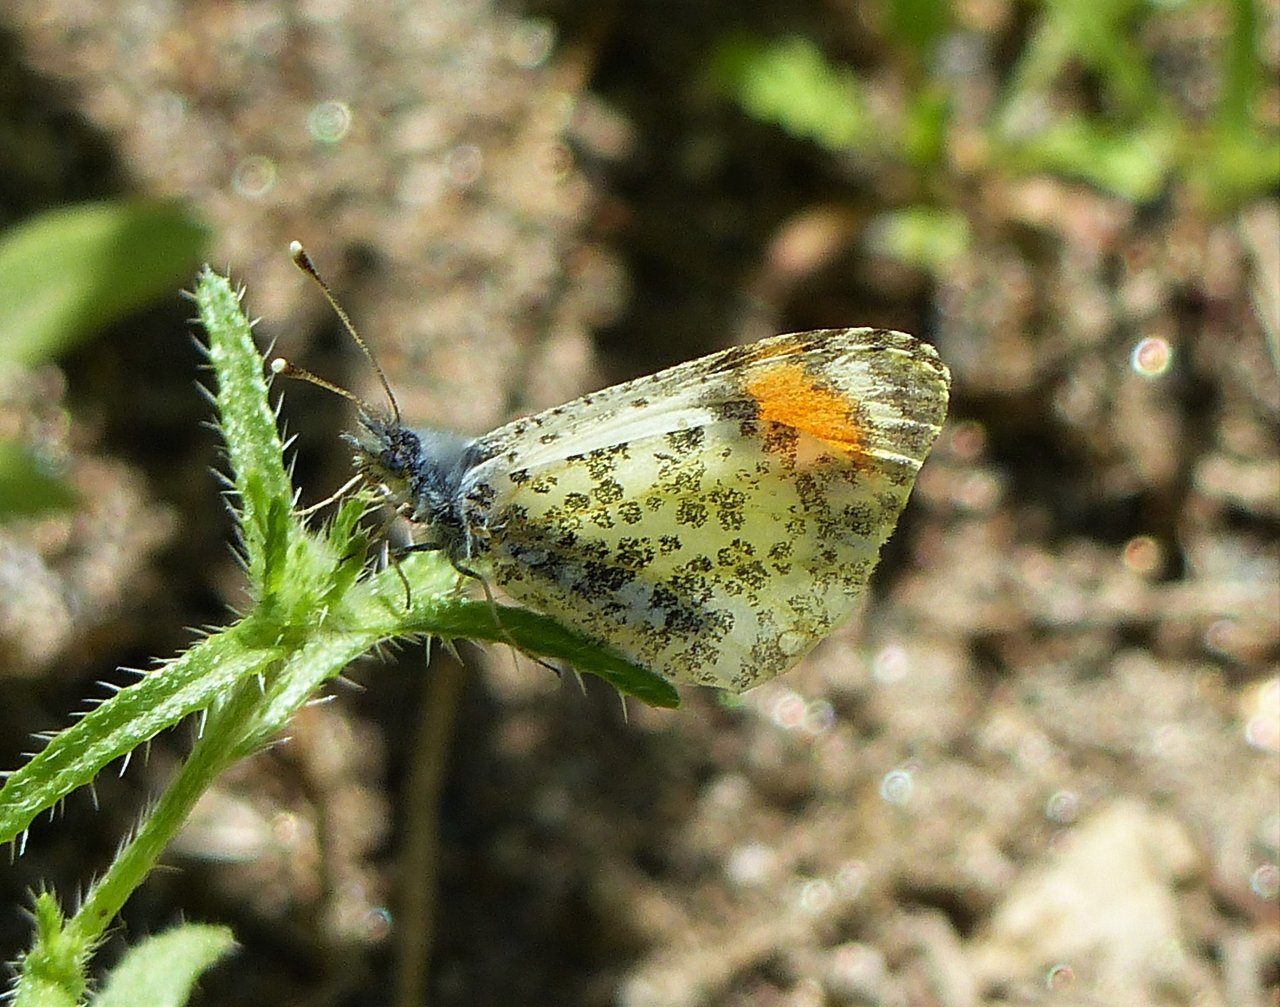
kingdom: Animalia
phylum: Arthropoda
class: Insecta
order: Lepidoptera
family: Pieridae
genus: Anthocharis
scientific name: Anthocharis sara
